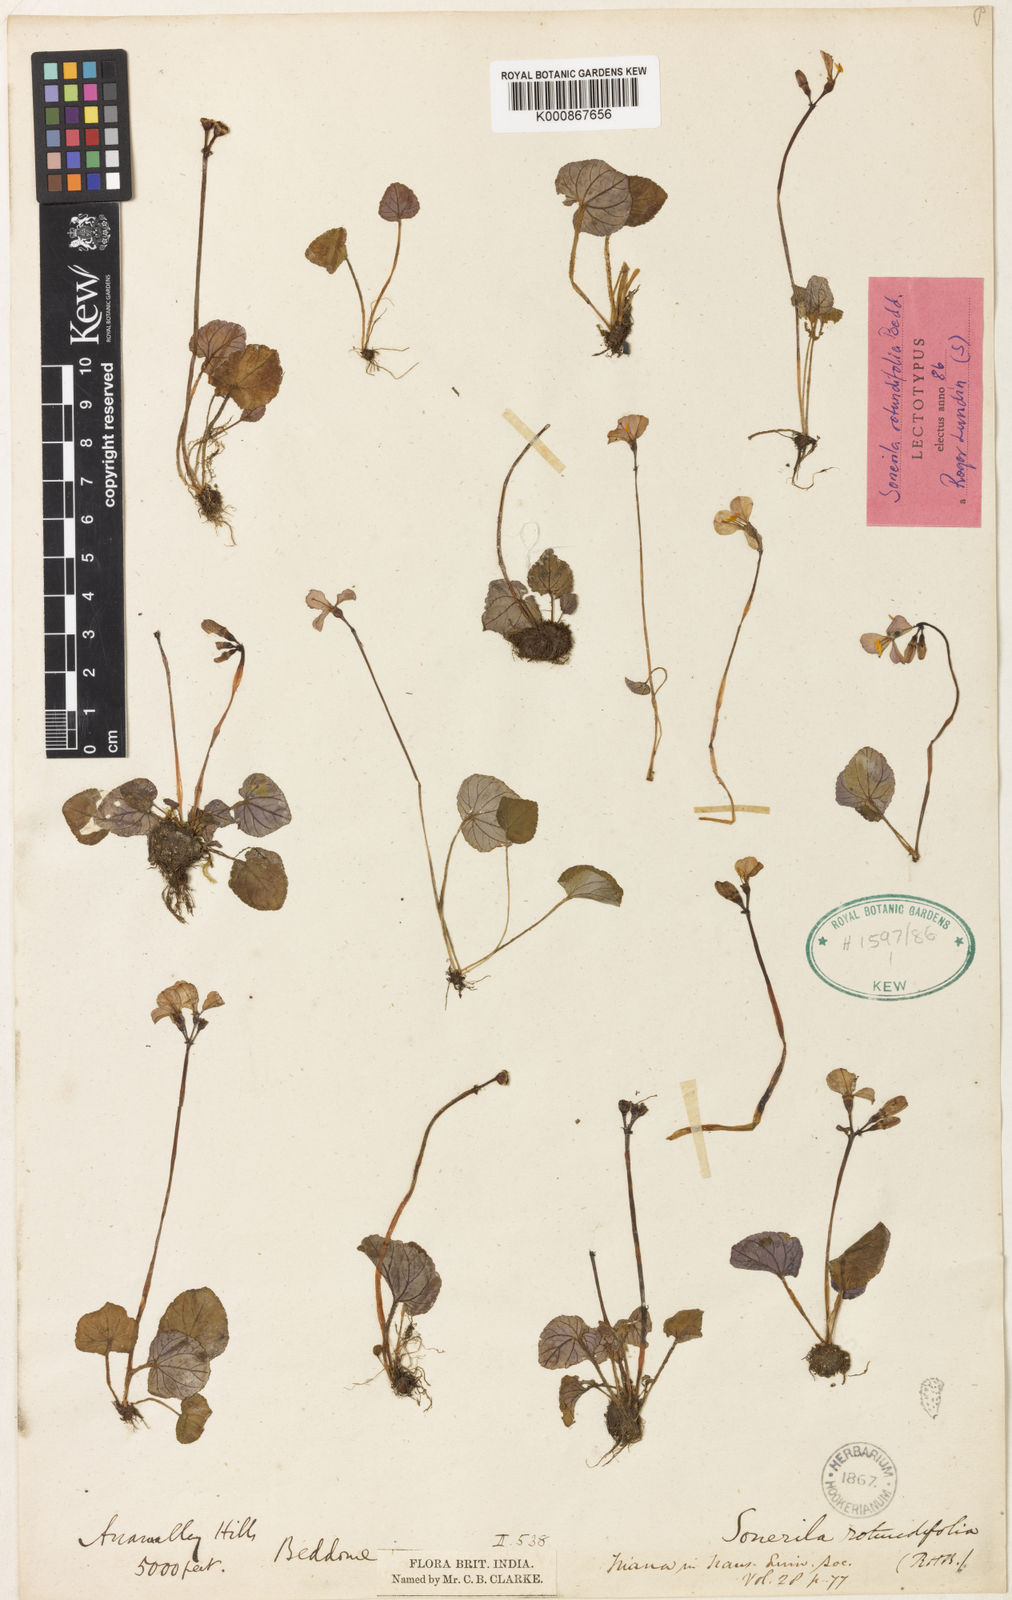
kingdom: Plantae
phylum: Tracheophyta
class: Magnoliopsida
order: Myrtales
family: Melastomataceae
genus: Sonerila
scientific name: Sonerila rotundifolia
